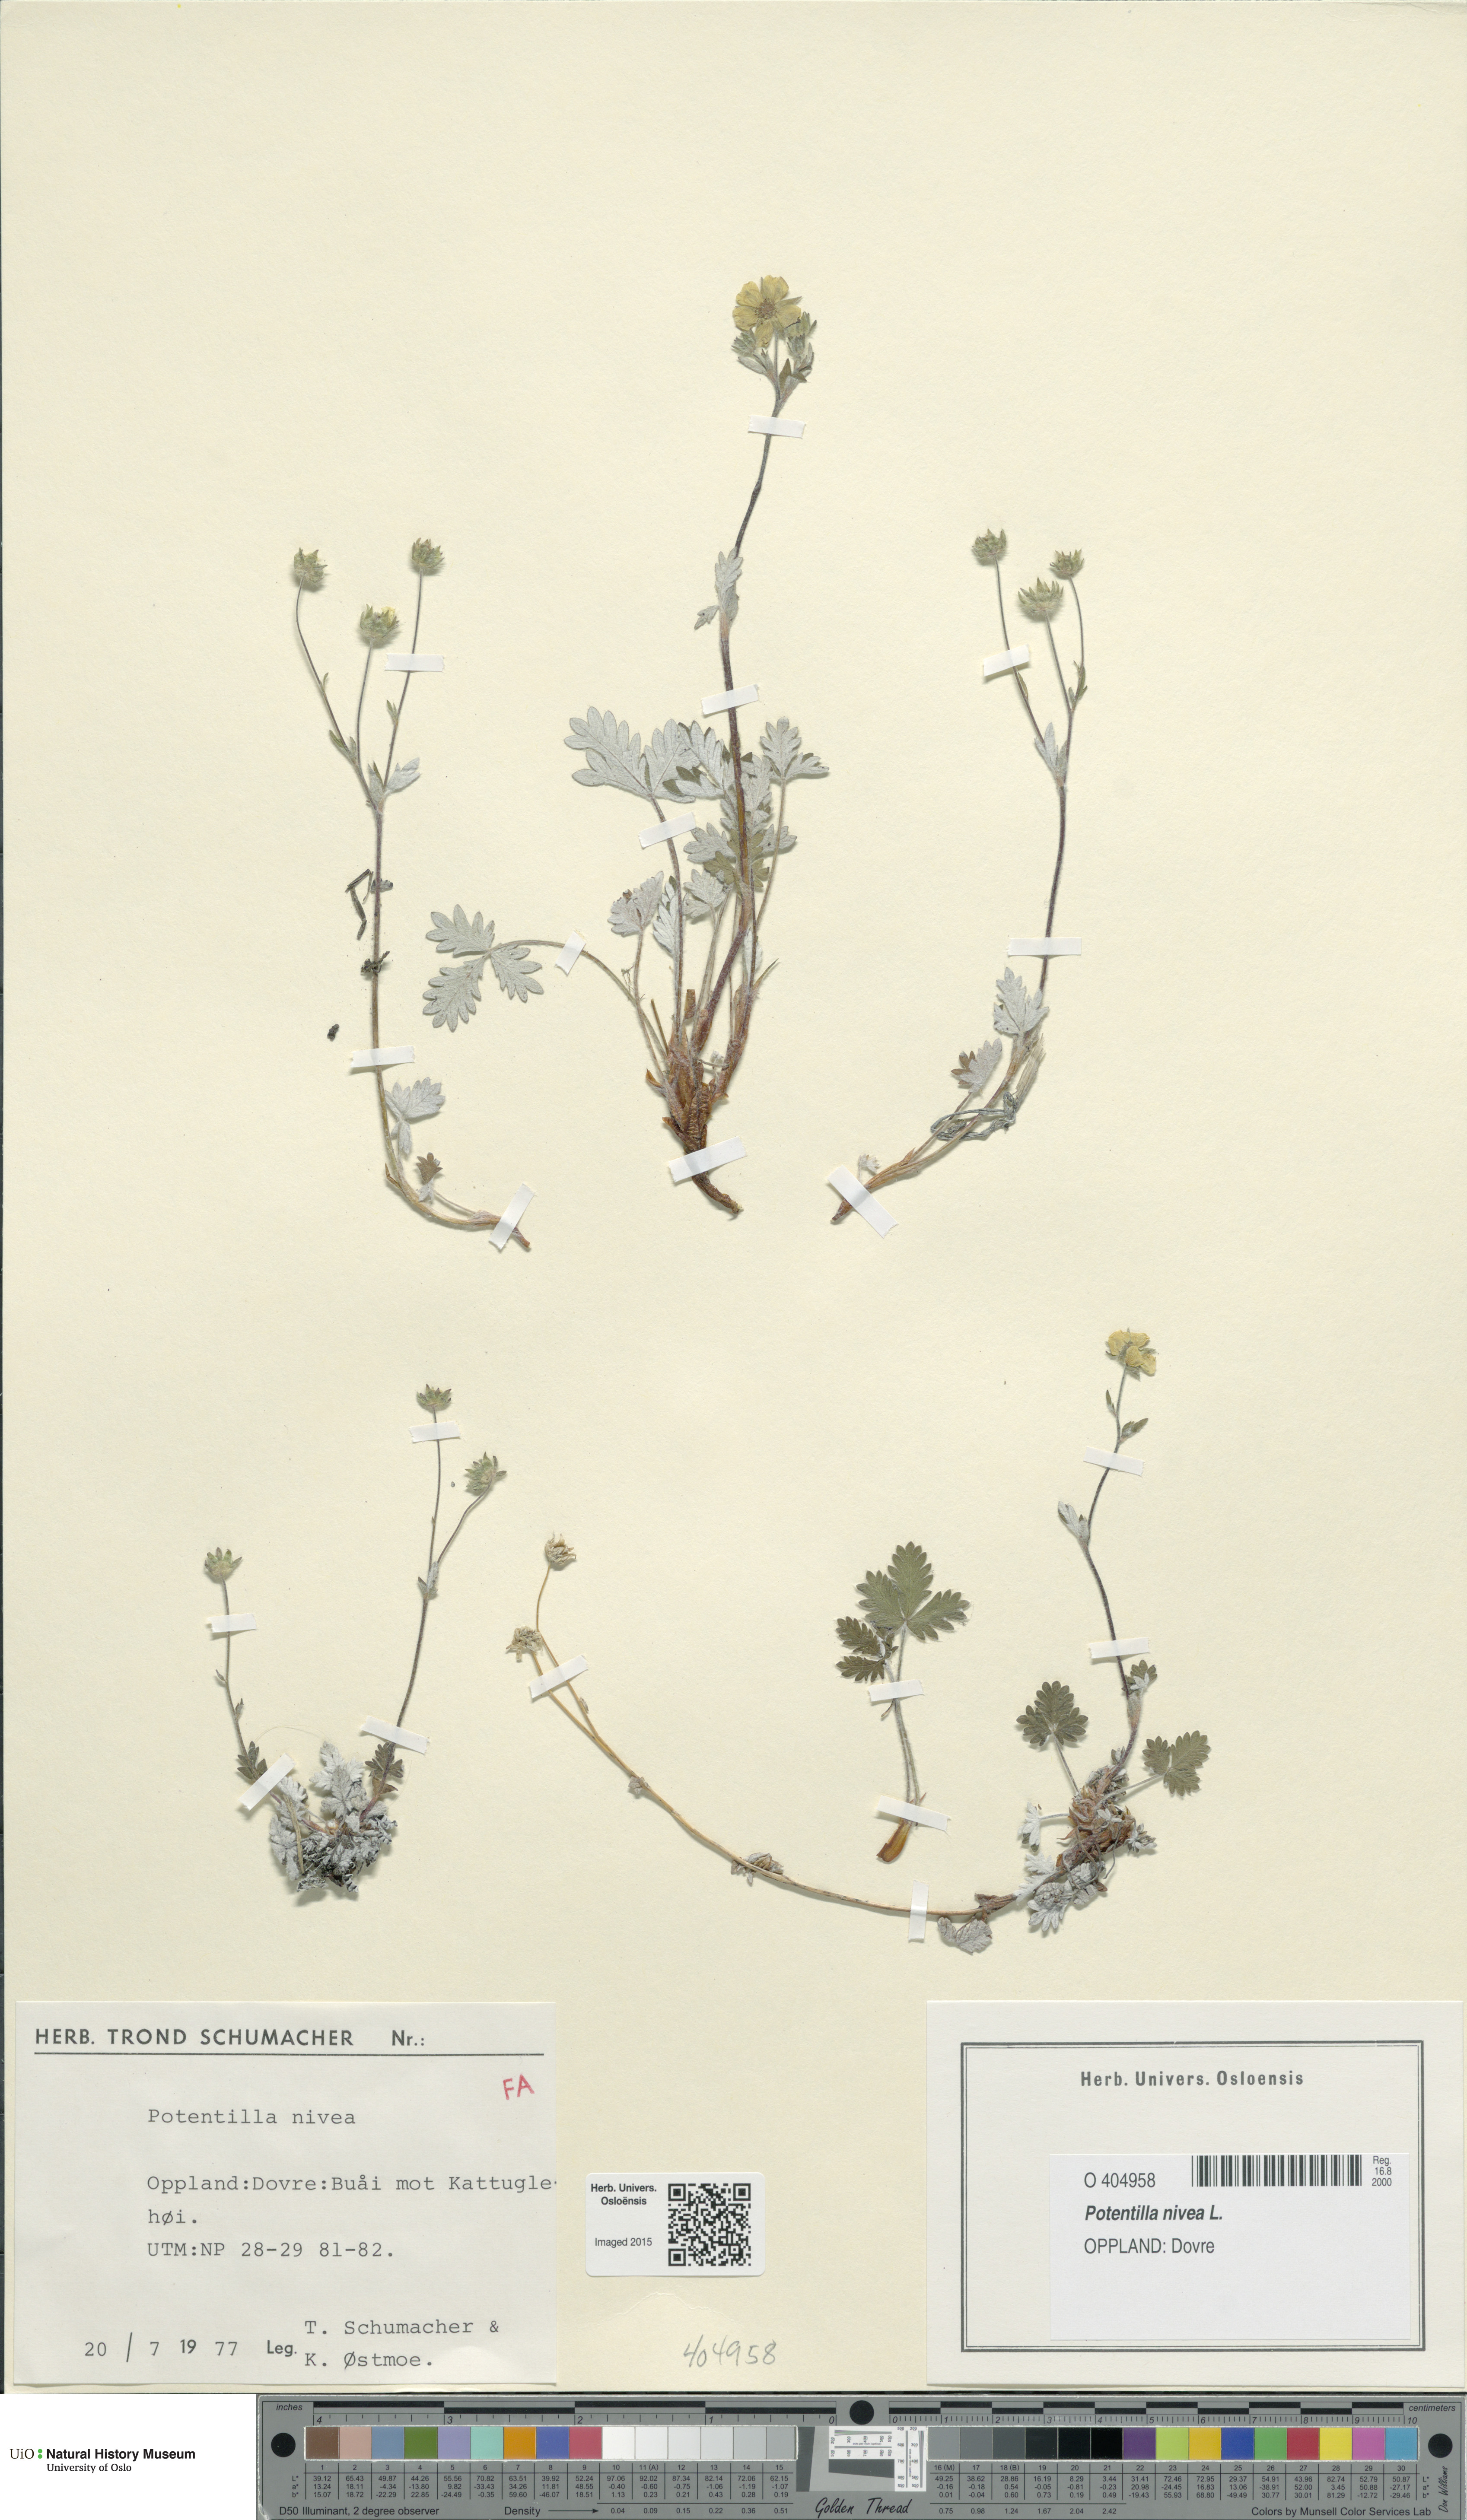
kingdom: Plantae
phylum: Tracheophyta
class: Magnoliopsida
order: Rosales
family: Rosaceae
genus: Potentilla
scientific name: Potentilla arenosa
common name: Bluff cinquefoil
